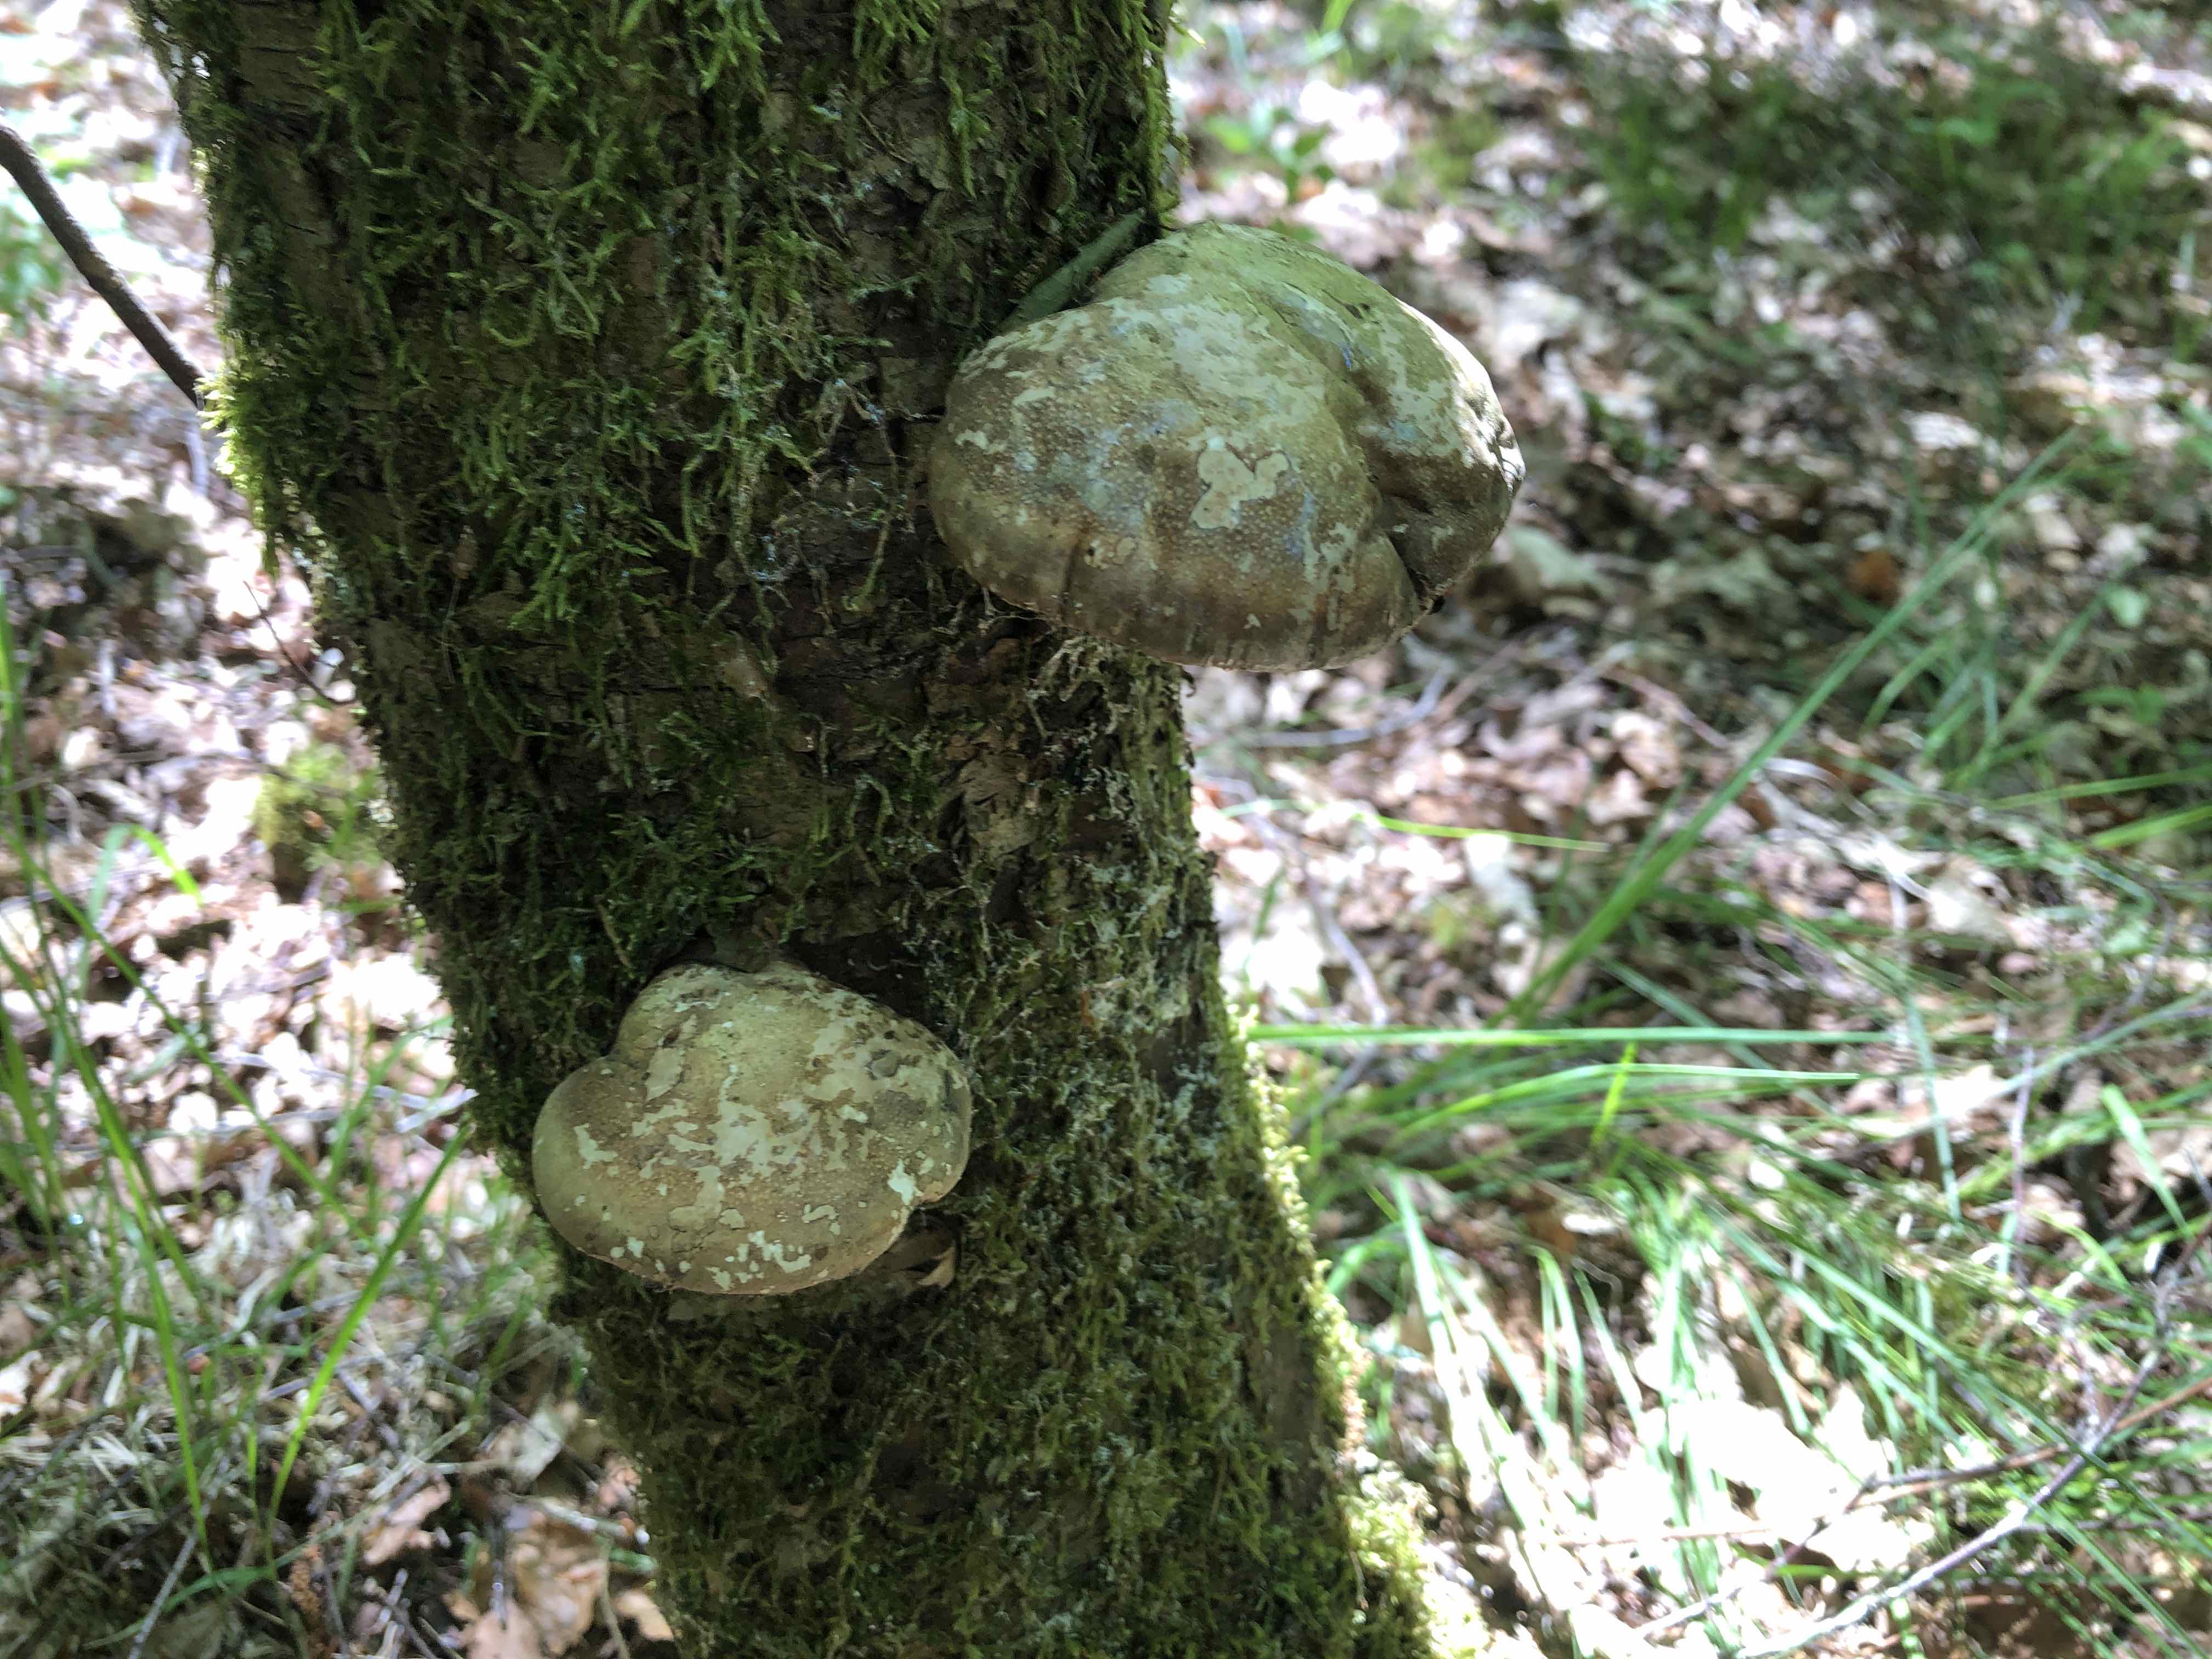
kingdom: Fungi
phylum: Basidiomycota
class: Agaricomycetes
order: Polyporales
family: Fomitopsidaceae
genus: Fomitopsis
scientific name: Fomitopsis betulina
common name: birkeporesvamp
